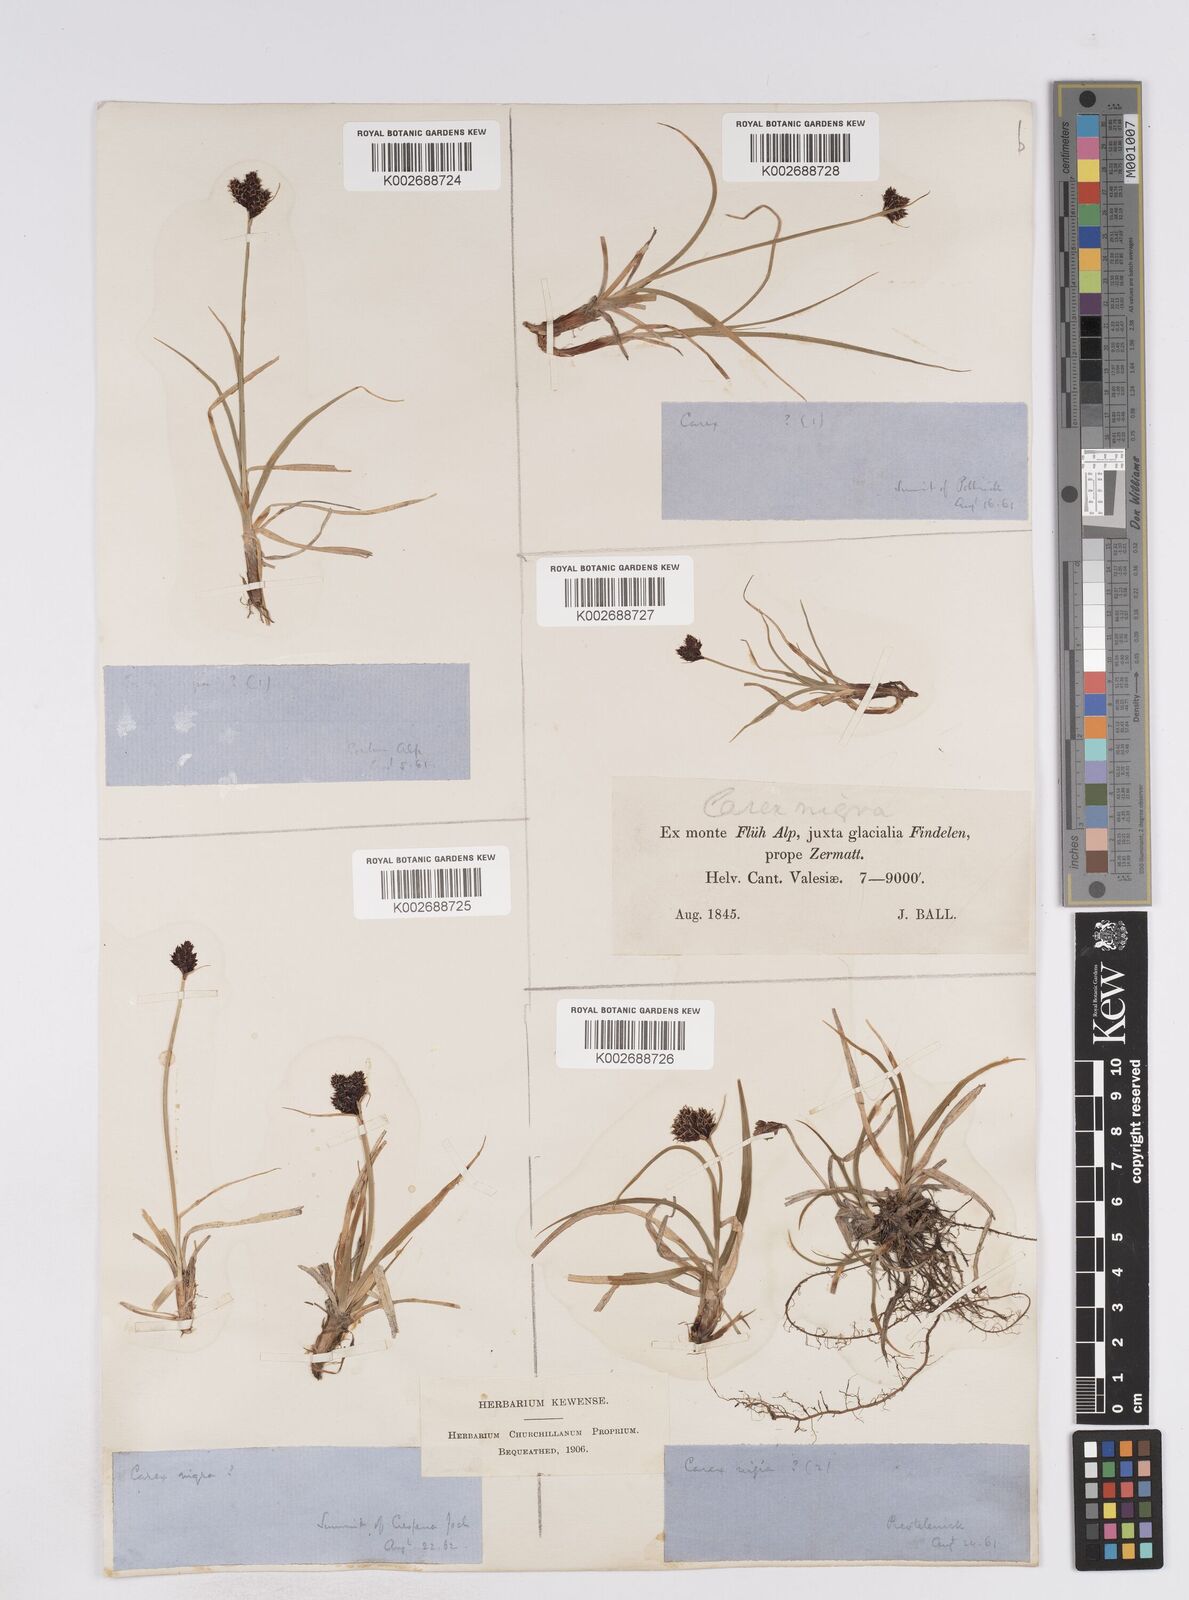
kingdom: Plantae
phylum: Tracheophyta
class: Liliopsida
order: Poales
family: Cyperaceae
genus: Carex
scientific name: Carex parviflora
